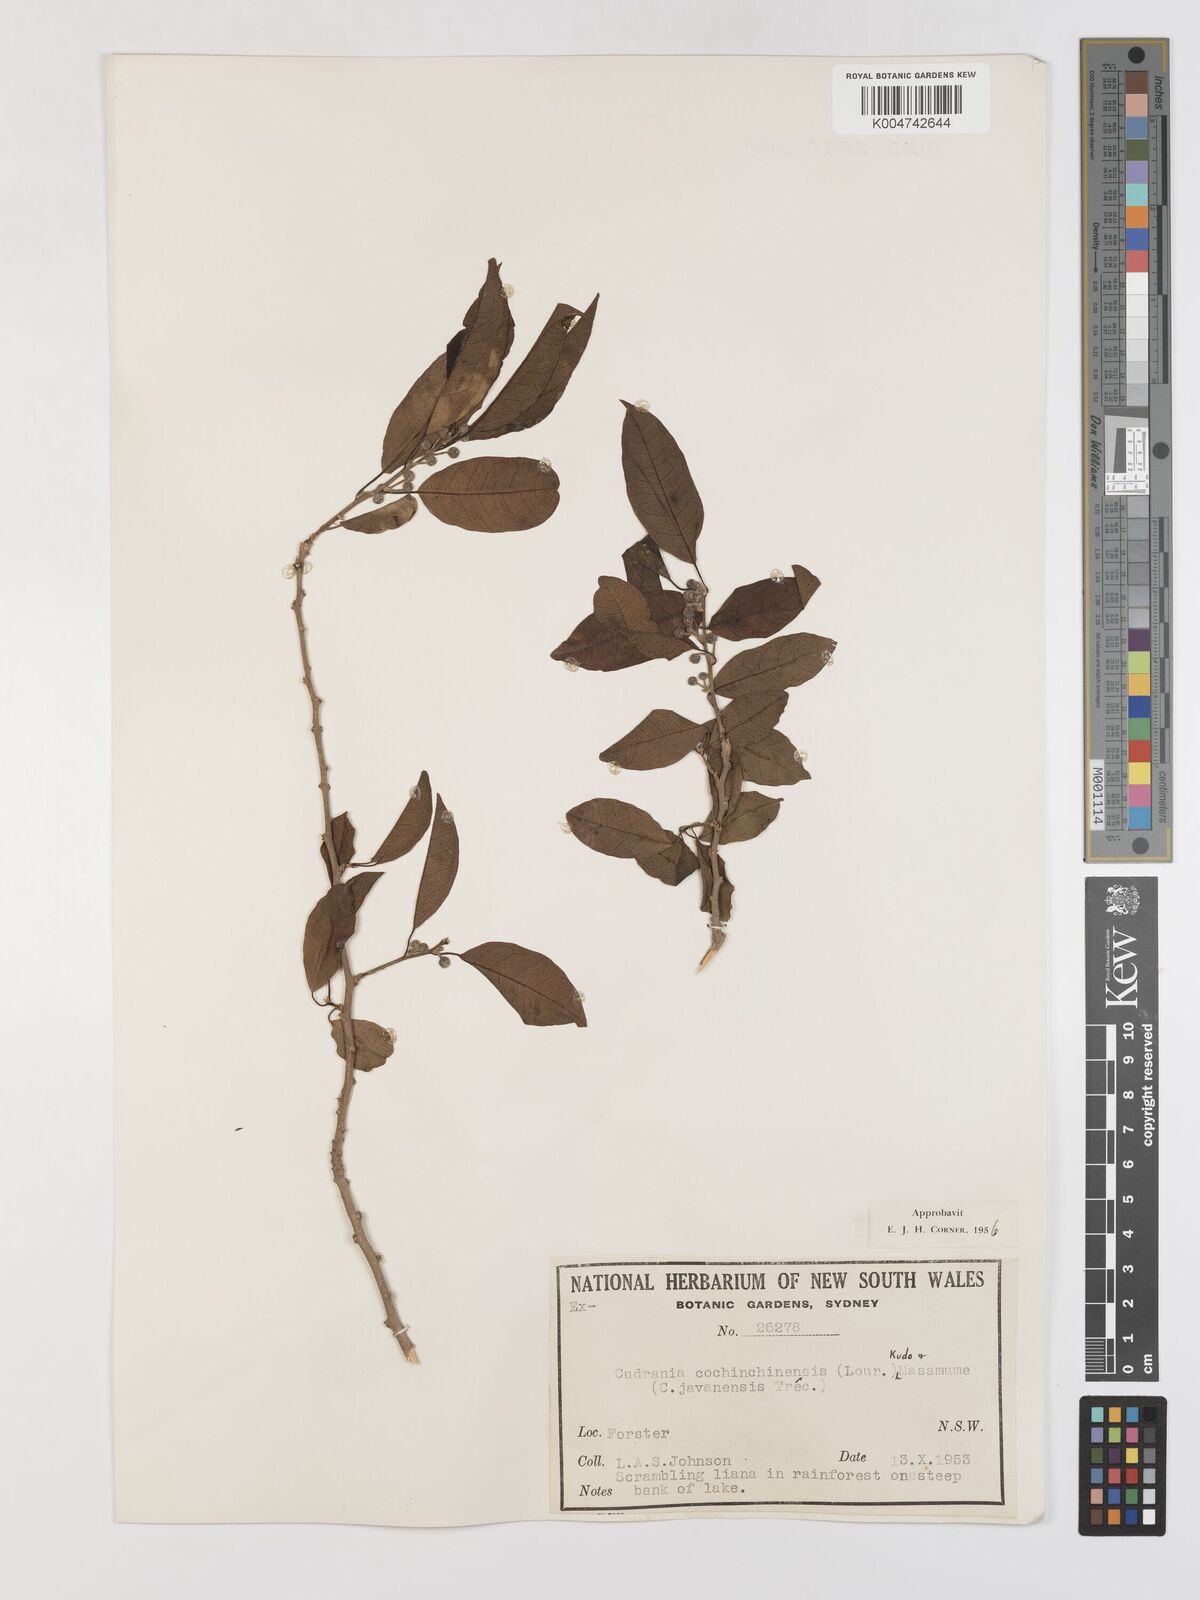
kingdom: Plantae
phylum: Tracheophyta
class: Magnoliopsida
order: Rosales
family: Moraceae
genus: Maclura
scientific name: Maclura cochinchinensis
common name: Cockspurthorn
